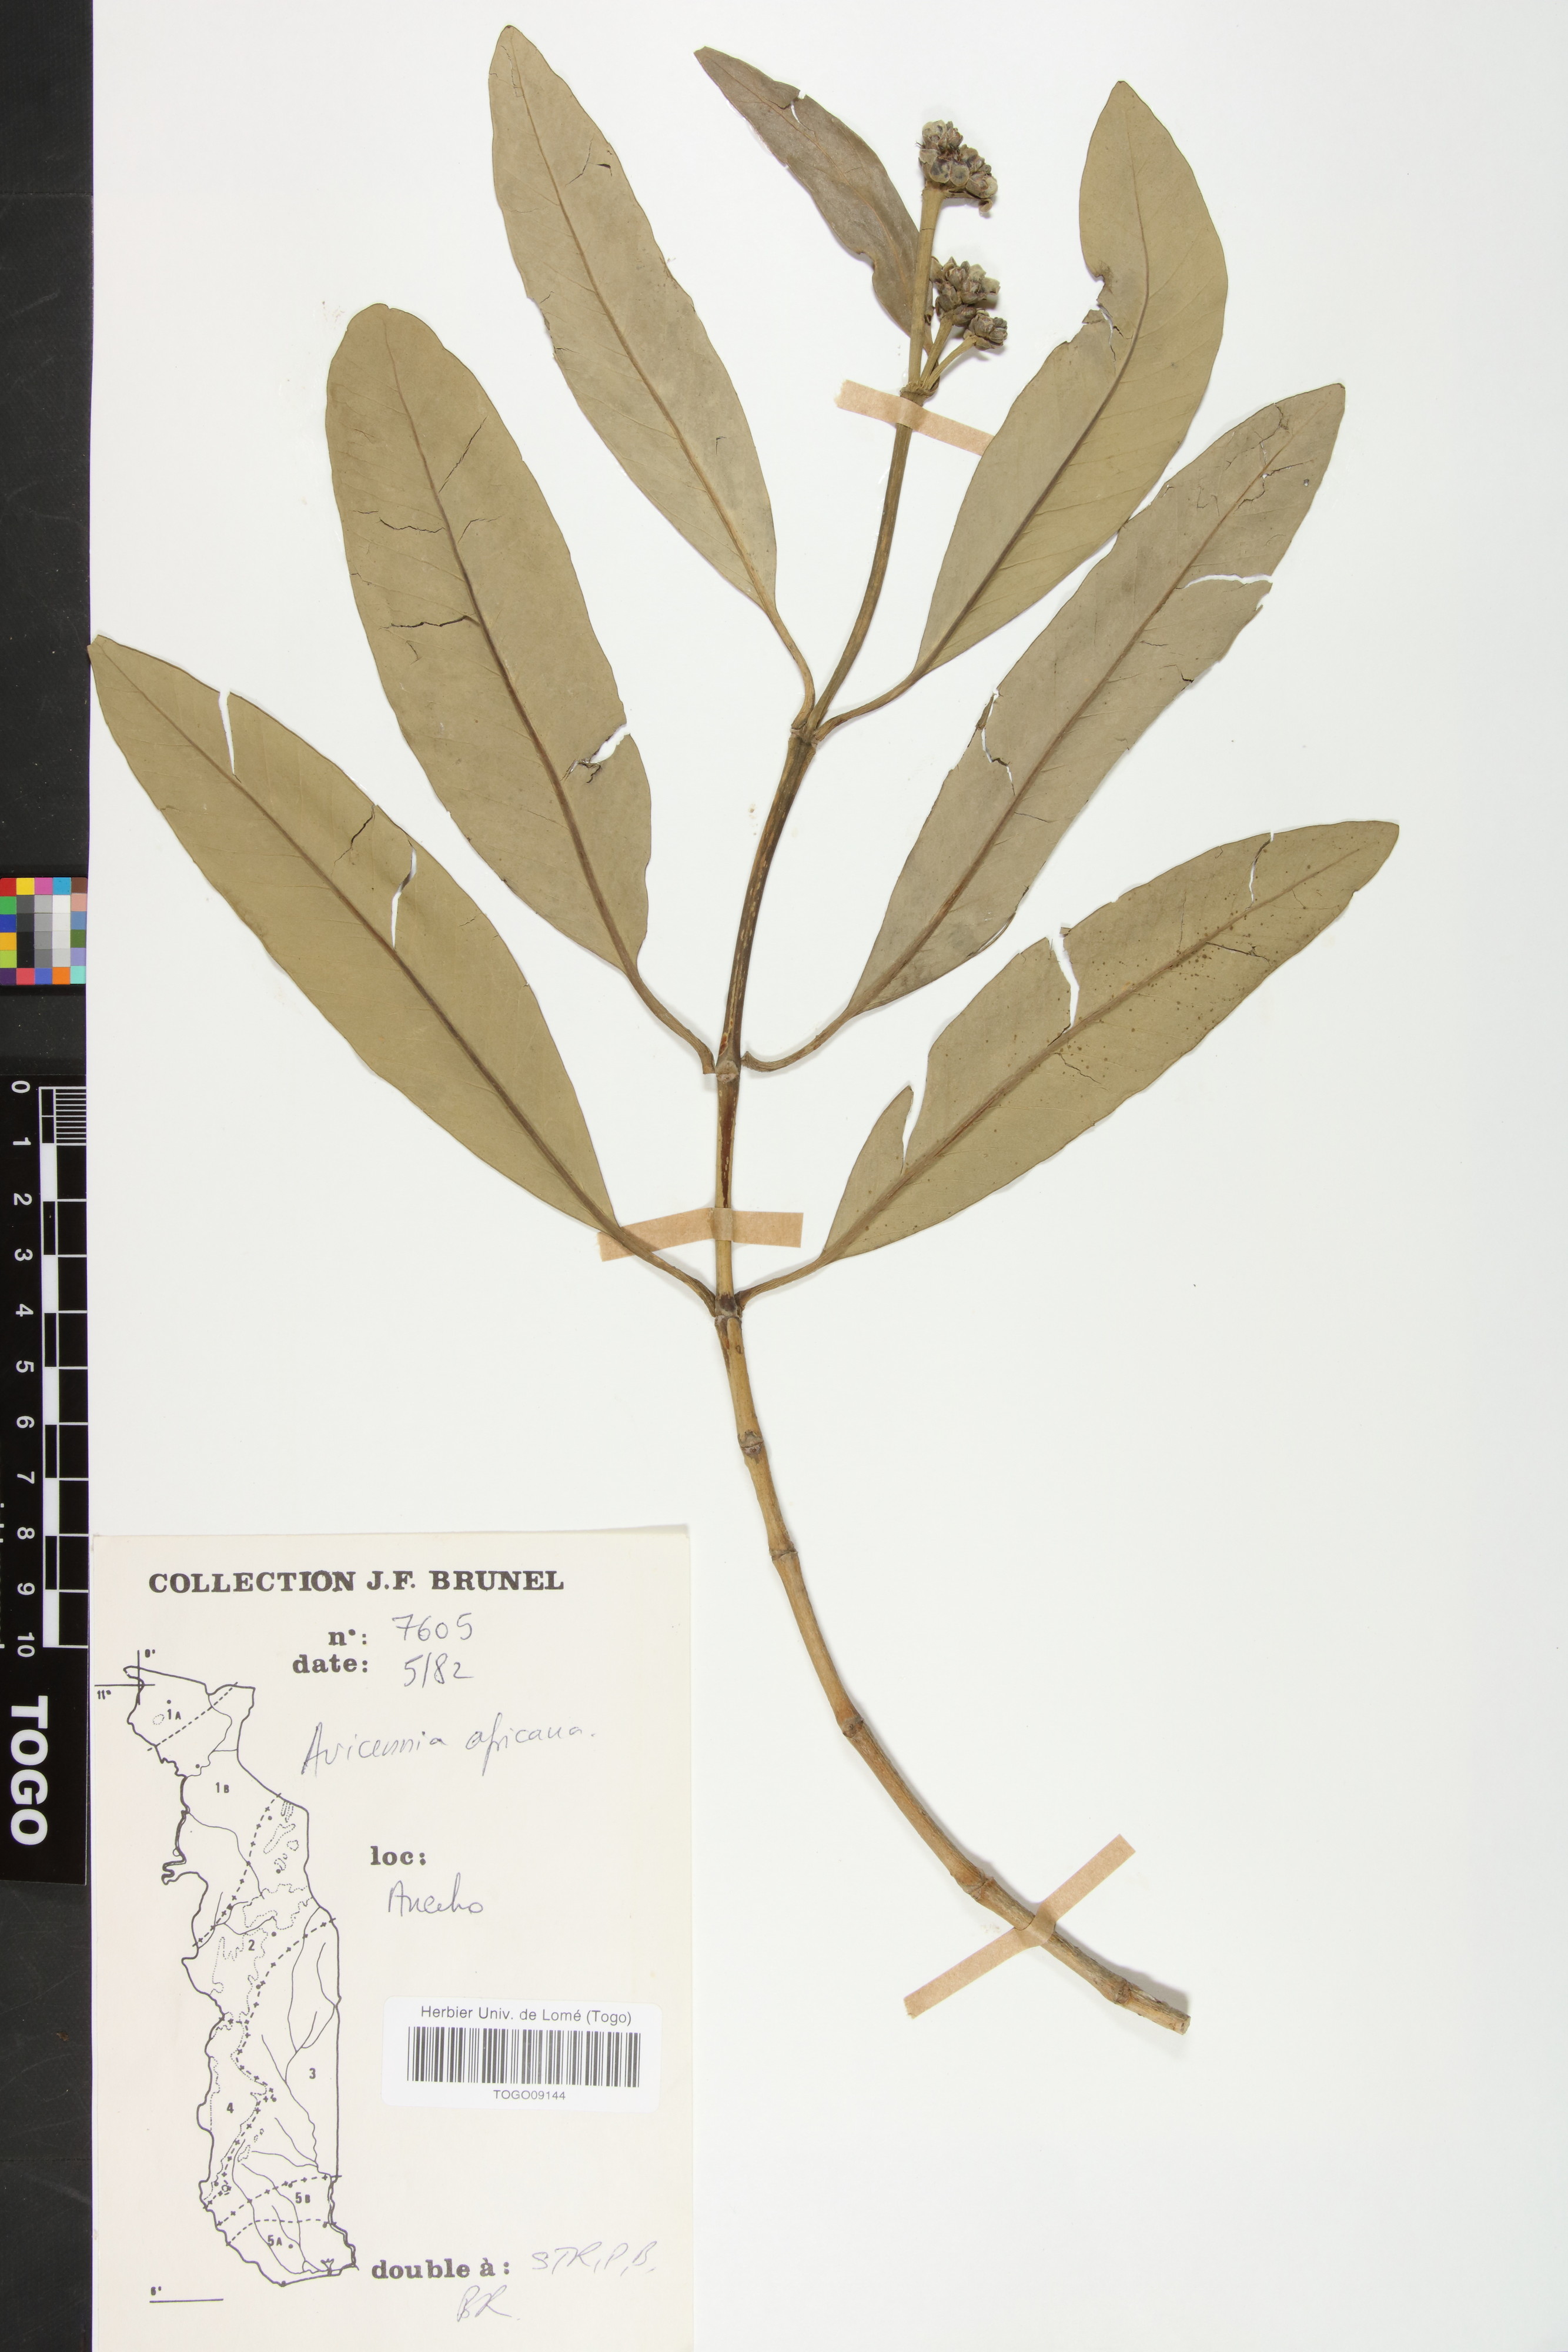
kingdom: Plantae
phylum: Tracheophyta
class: Magnoliopsida
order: Lamiales
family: Acanthaceae
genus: Avicennia
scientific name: Avicennia germinans
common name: Black mangrove
